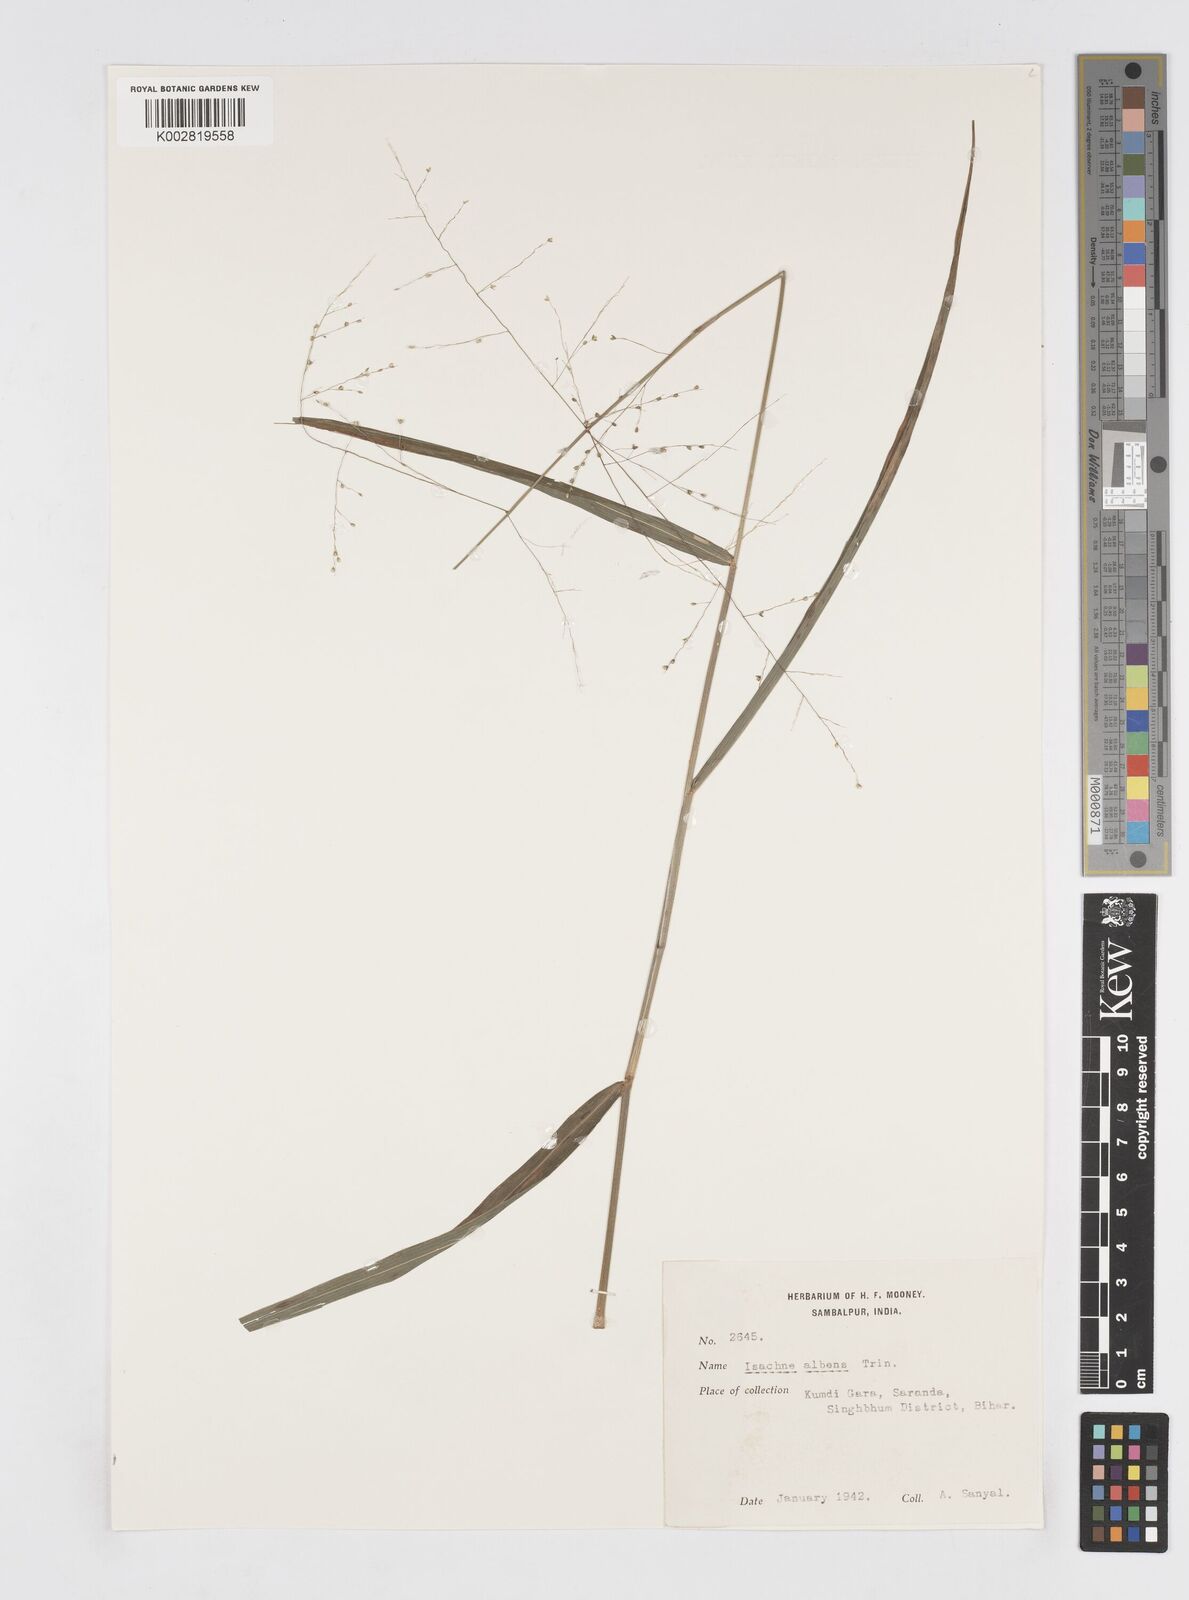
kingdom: Plantae
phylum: Tracheophyta
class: Liliopsida
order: Poales
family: Poaceae
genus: Isachne
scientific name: Isachne albens
